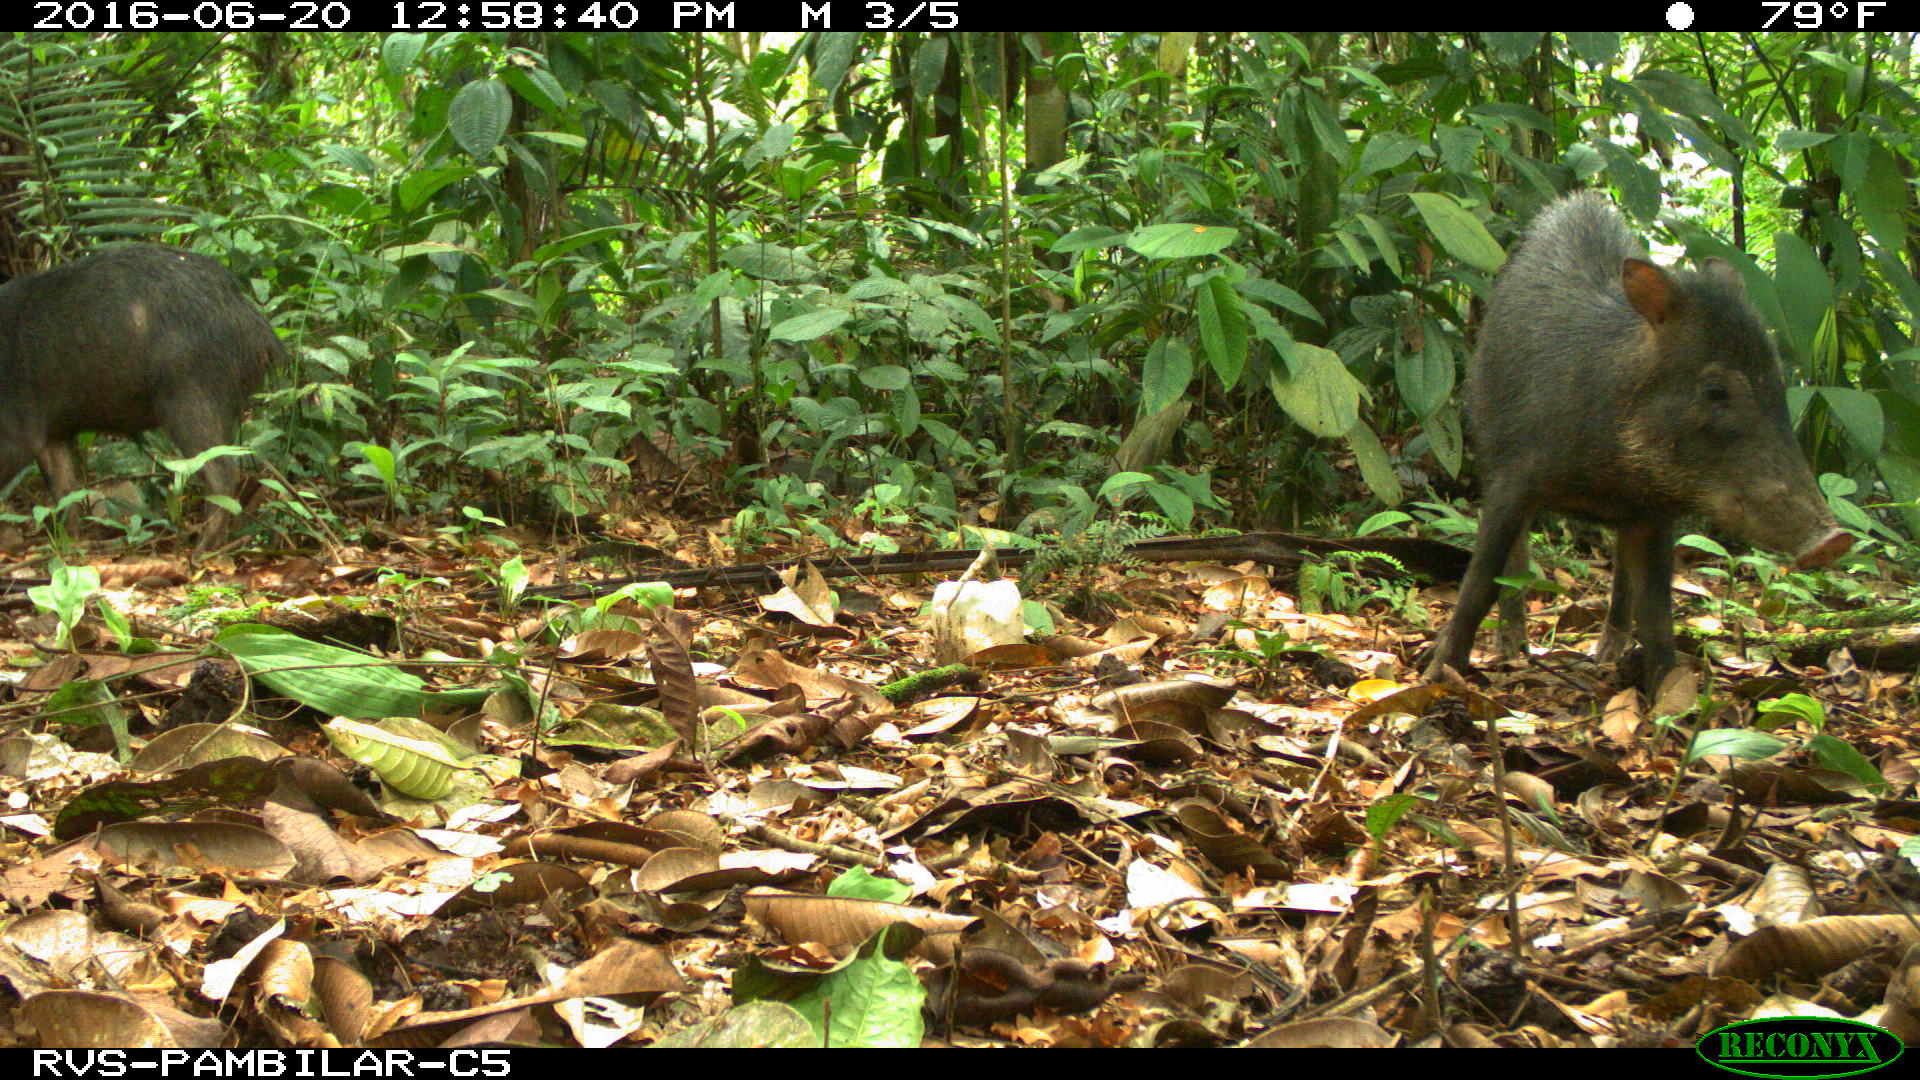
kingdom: Animalia
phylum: Chordata
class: Mammalia
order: Artiodactyla
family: Tayassuidae
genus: Tayassu
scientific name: Tayassu pecari
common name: White-lipped peccary
